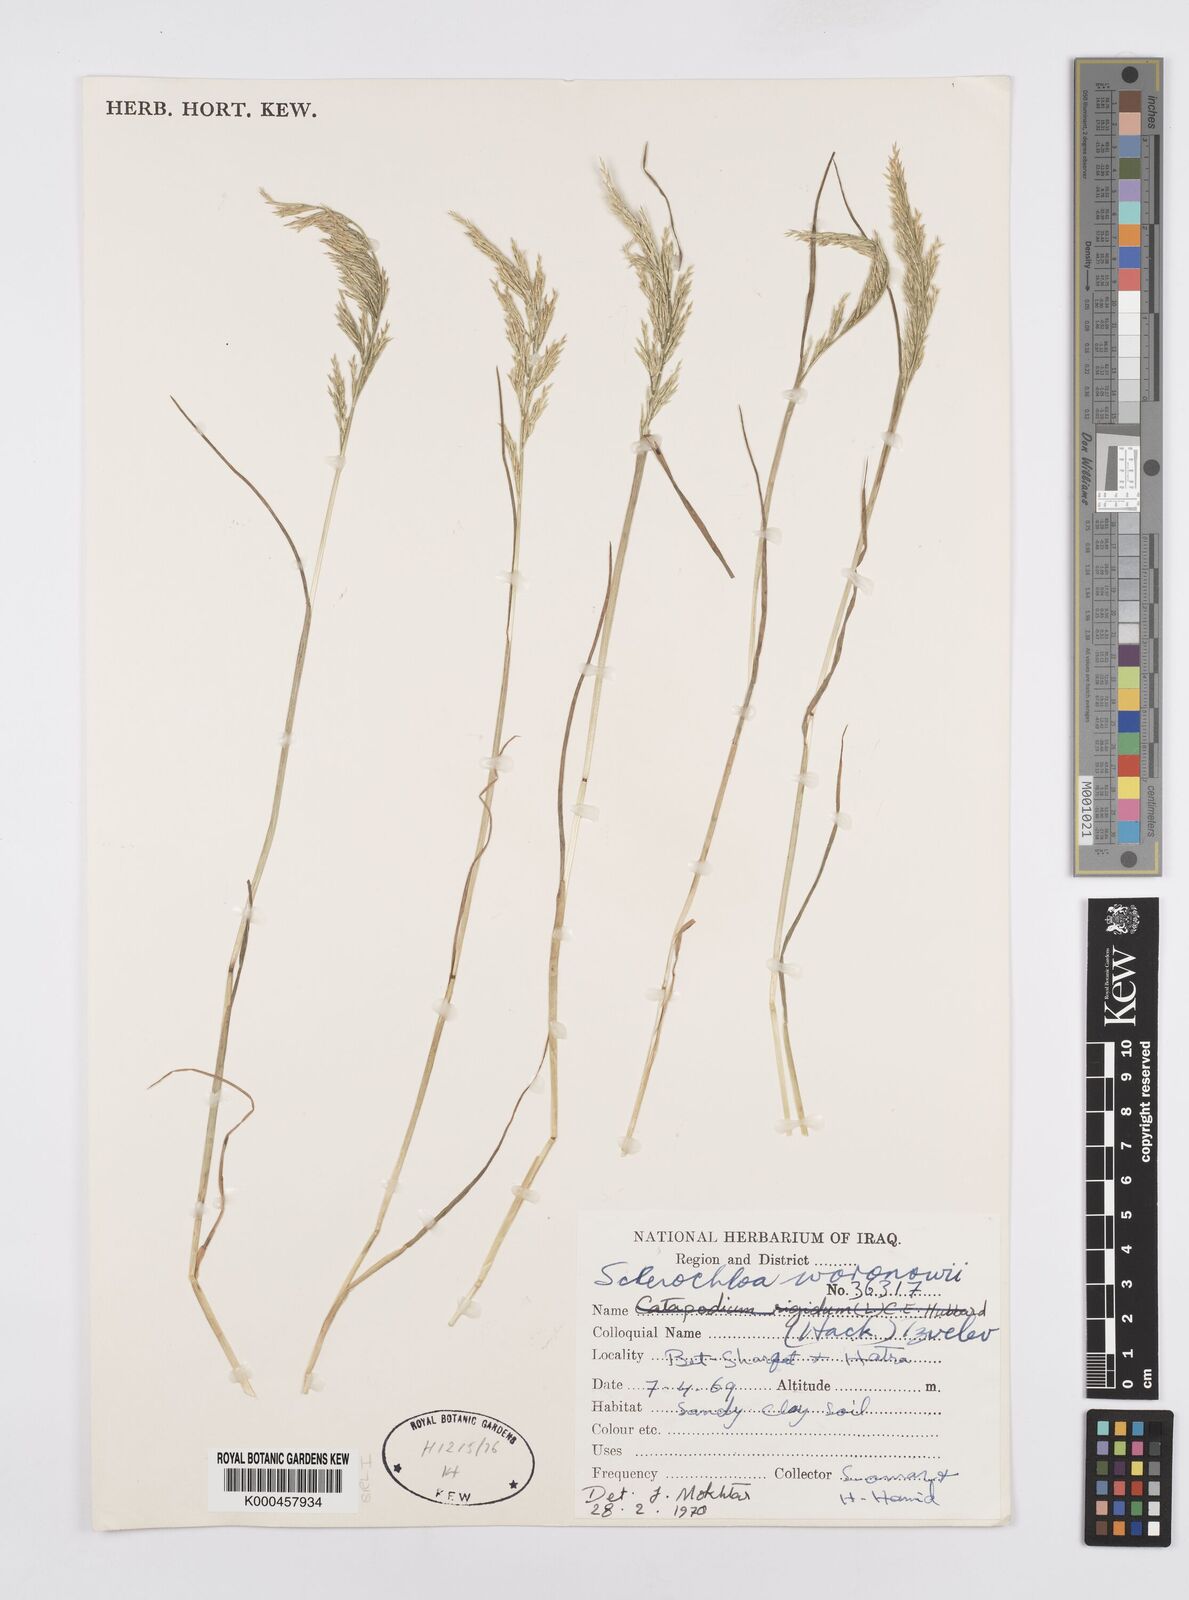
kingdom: Plantae
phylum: Tracheophyta
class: Liliopsida
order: Poales
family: Poaceae
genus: Sclerochloa
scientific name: Sclerochloa woronowii
